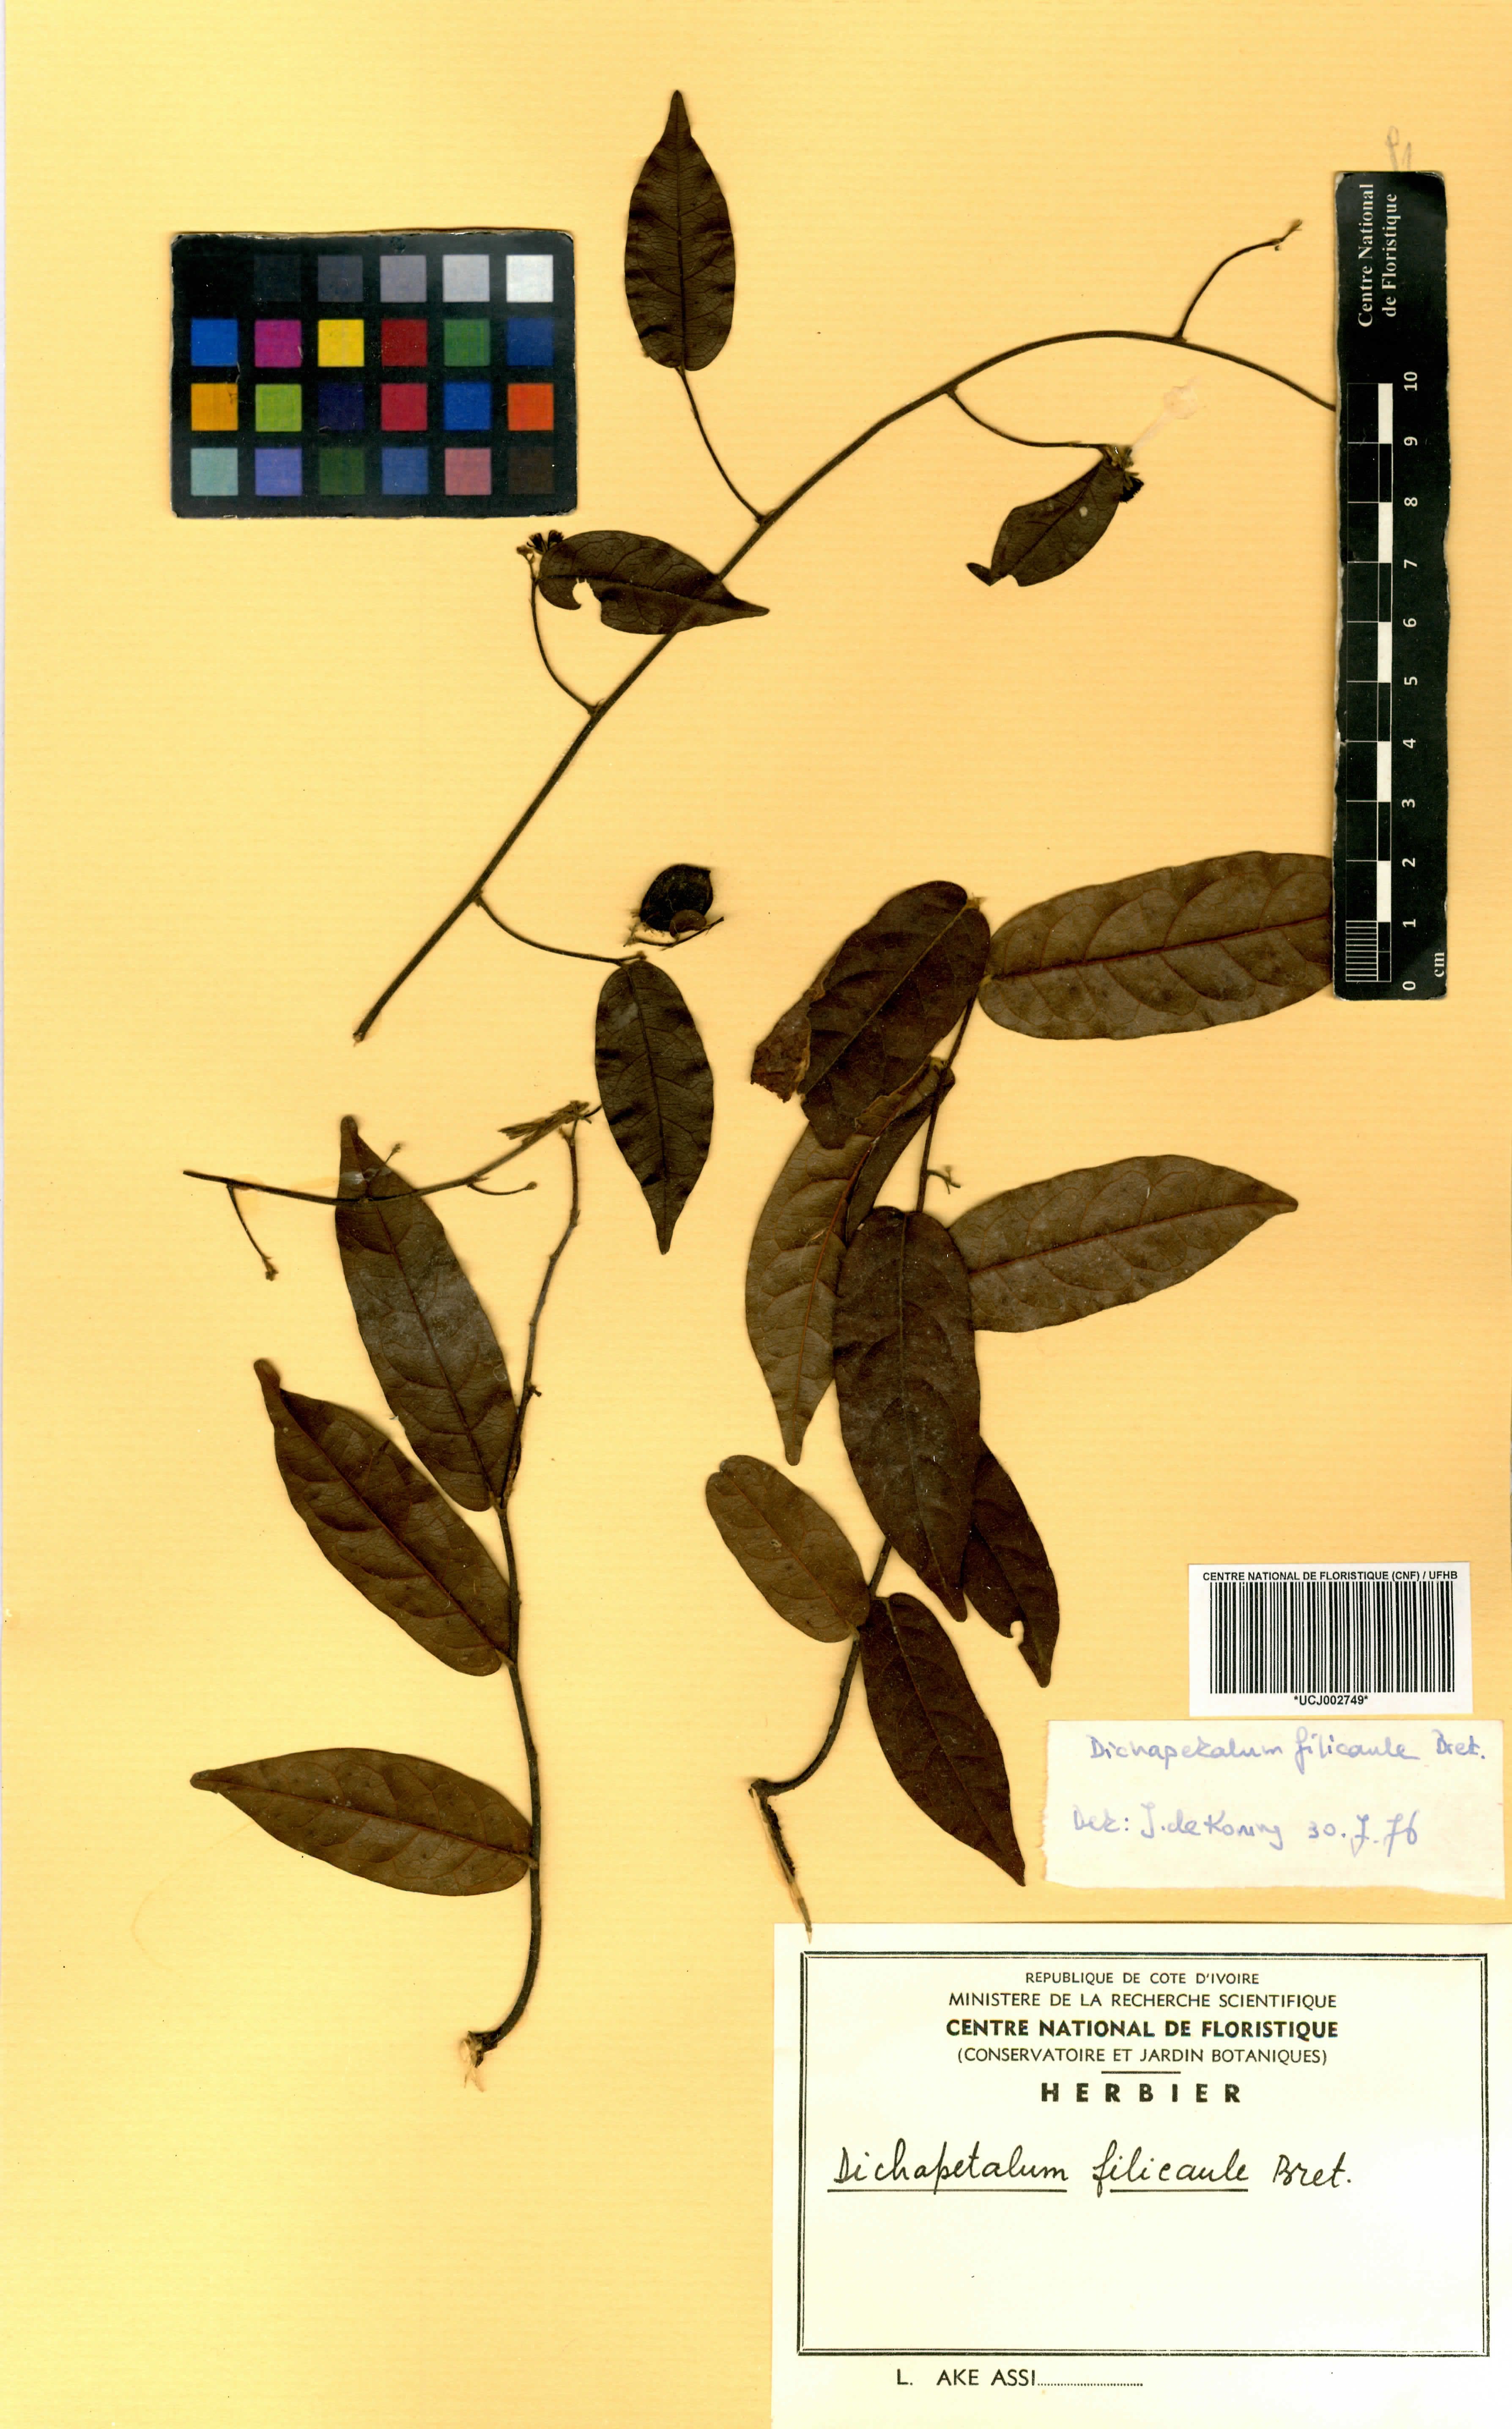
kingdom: Plantae
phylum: Tracheophyta
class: Magnoliopsida
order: Malpighiales
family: Dichapetalaceae
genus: Dichapetalum
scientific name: Dichapetalum filicaule
